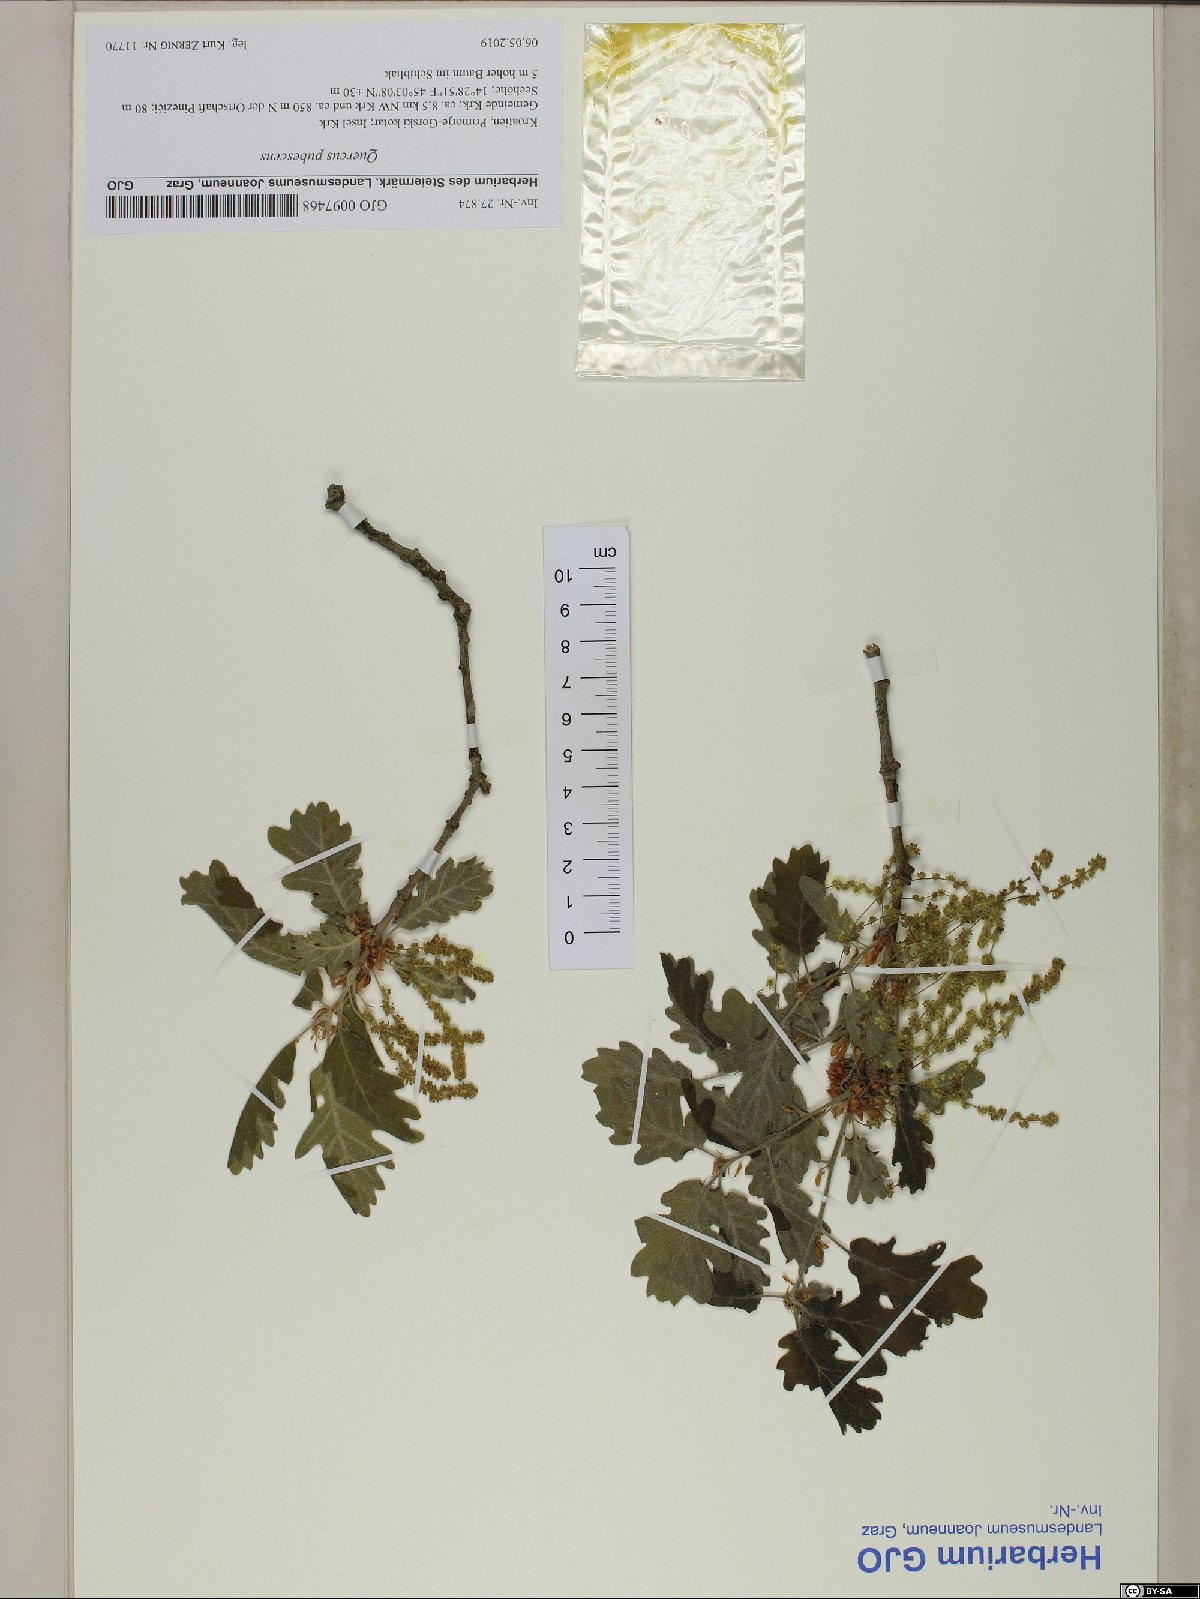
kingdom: Plantae
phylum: Tracheophyta
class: Magnoliopsida
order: Fagales
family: Fagaceae
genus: Quercus
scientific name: Quercus pubescens
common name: Downy oak
